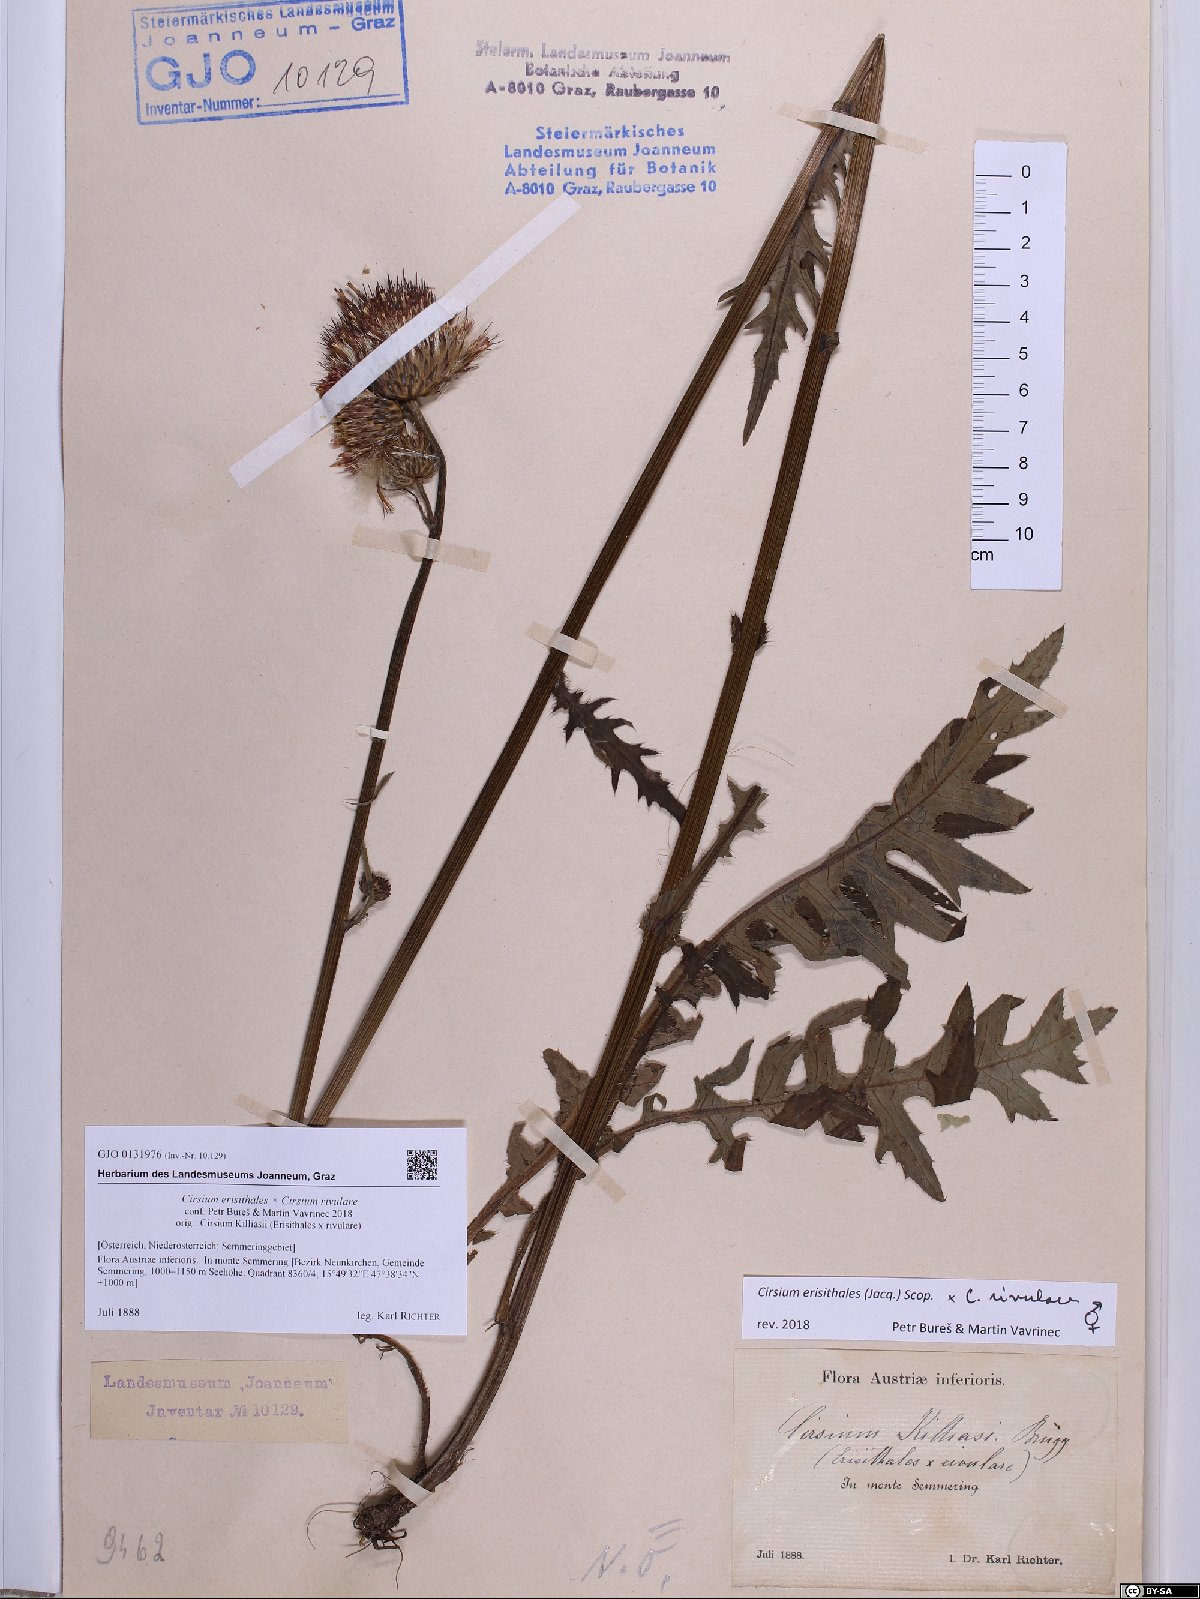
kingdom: Plantae
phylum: Tracheophyta
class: Magnoliopsida
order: Asterales
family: Asteraceae
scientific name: Asteraceae
